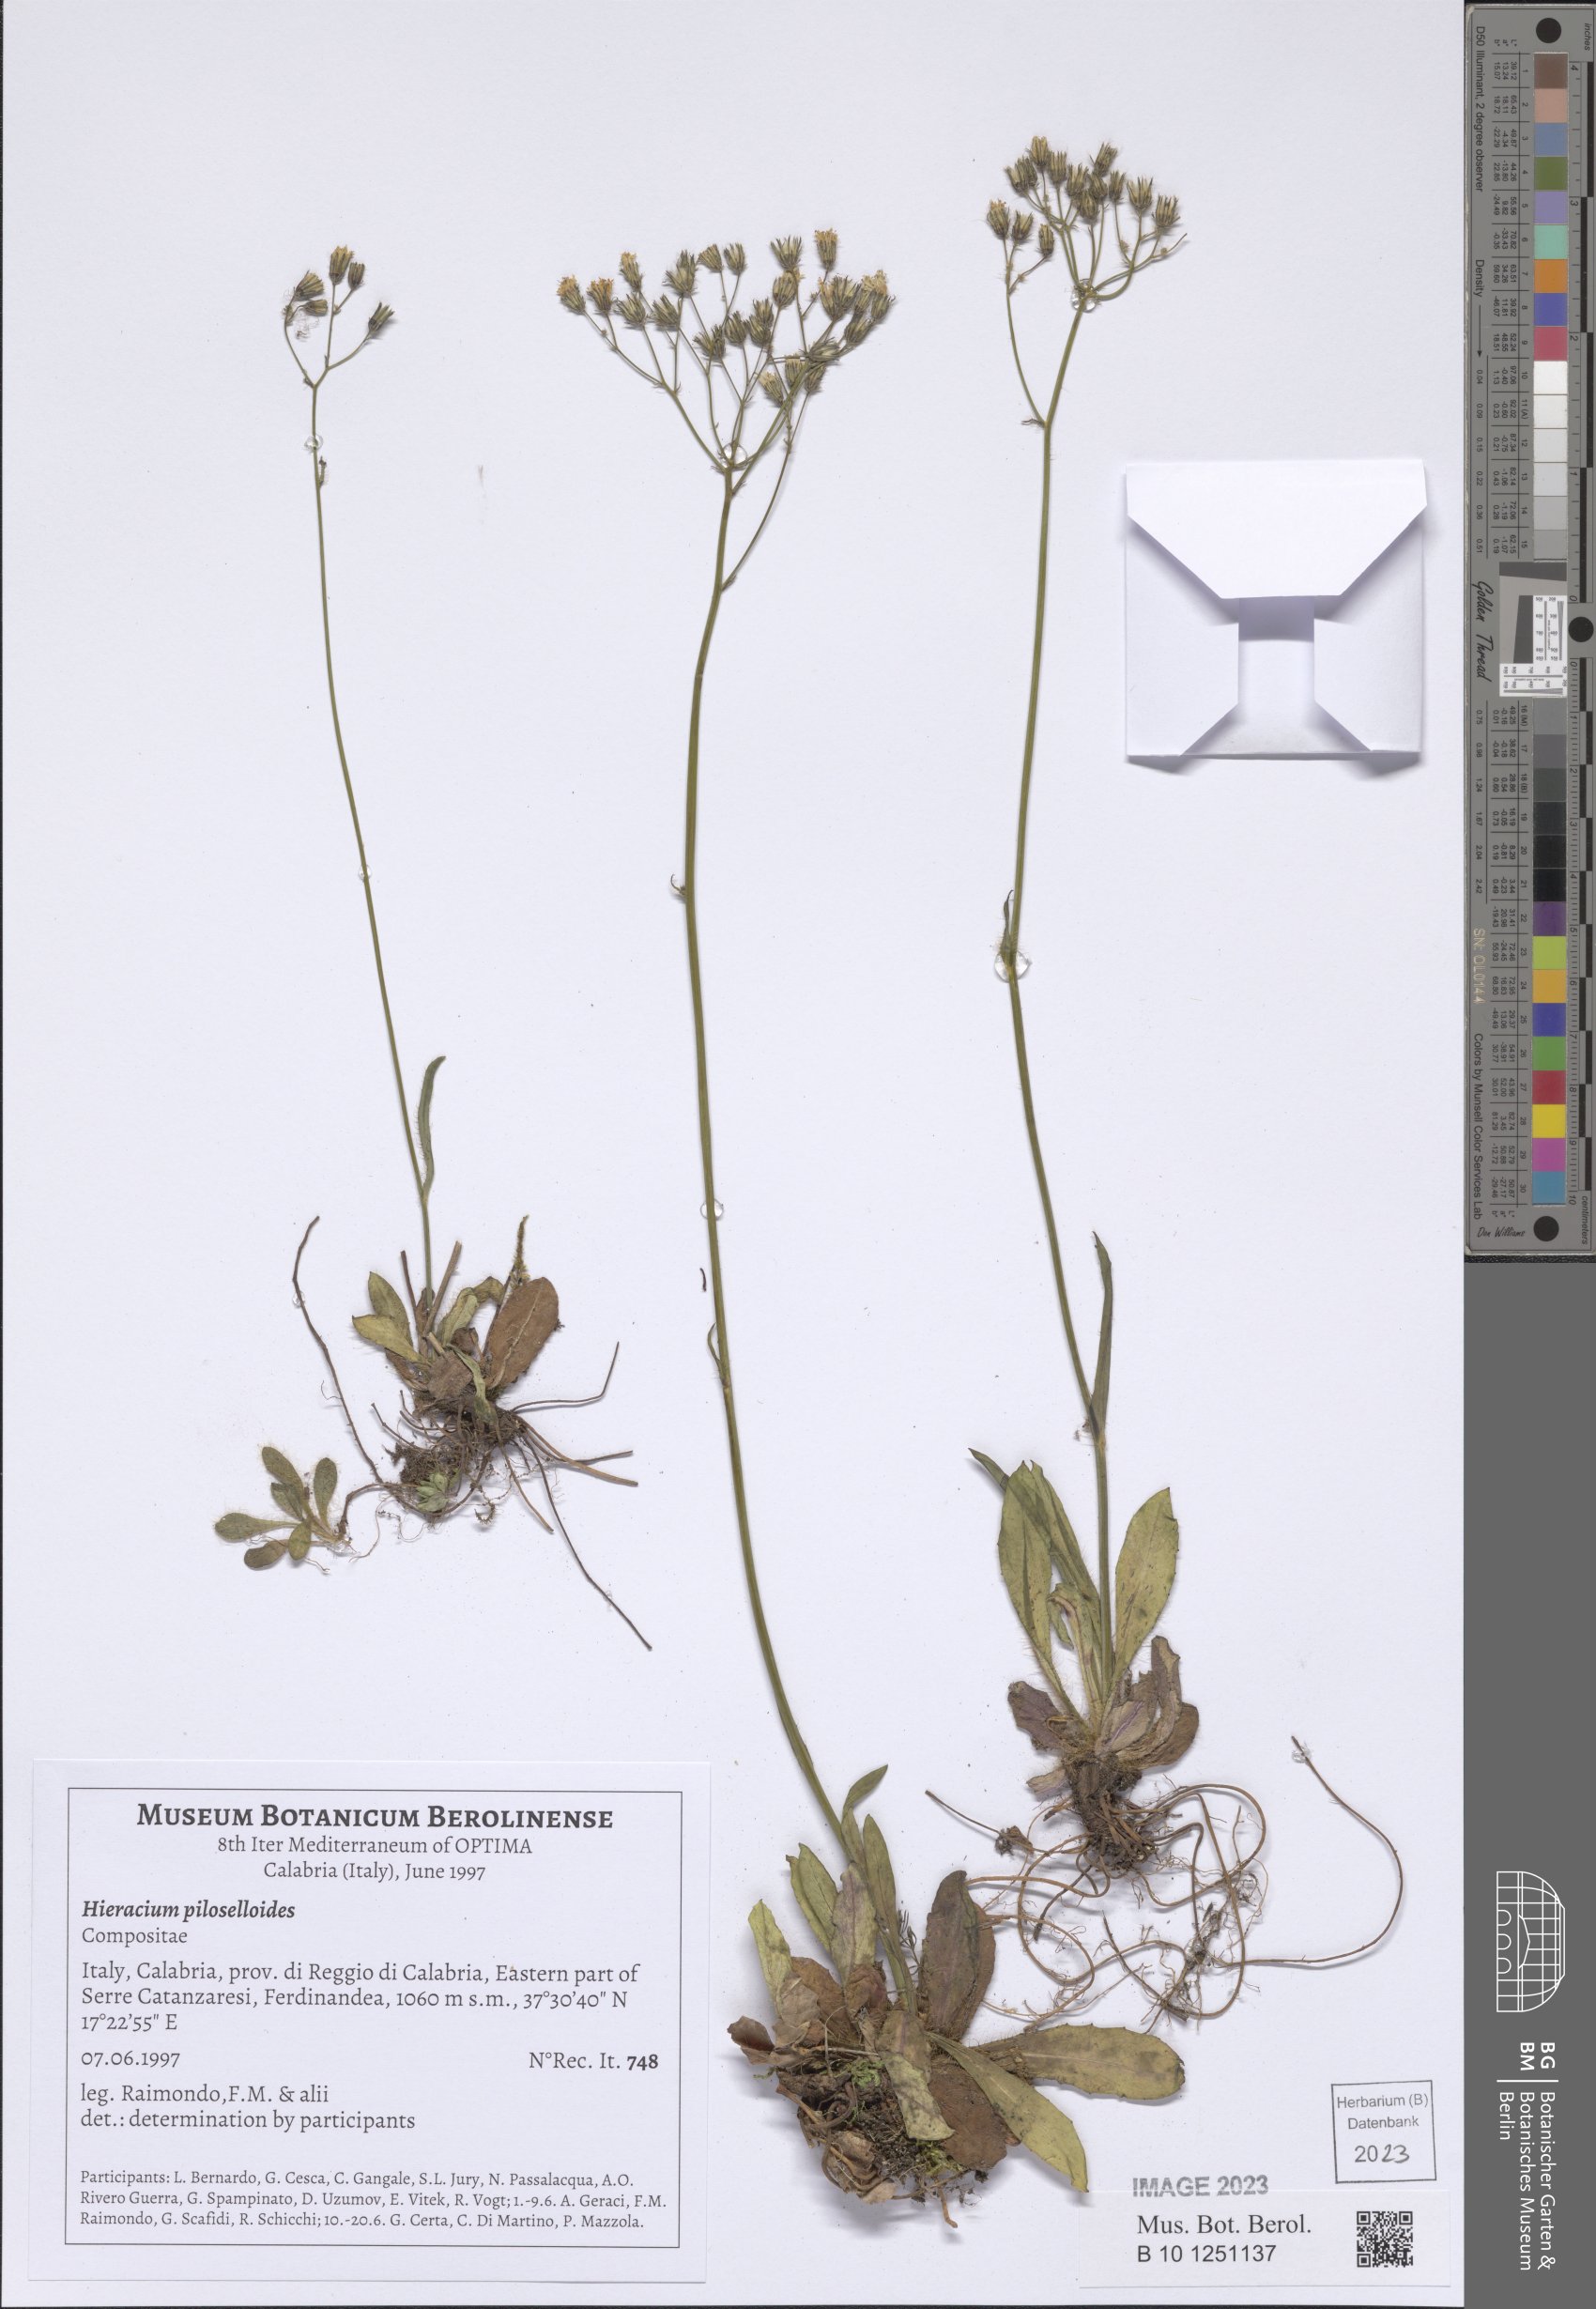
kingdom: Plantae
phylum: Tracheophyta
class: Magnoliopsida
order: Asterales
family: Asteraceae
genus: Pilosella
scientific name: Pilosella piloselloides
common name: Glaucous king-devil
